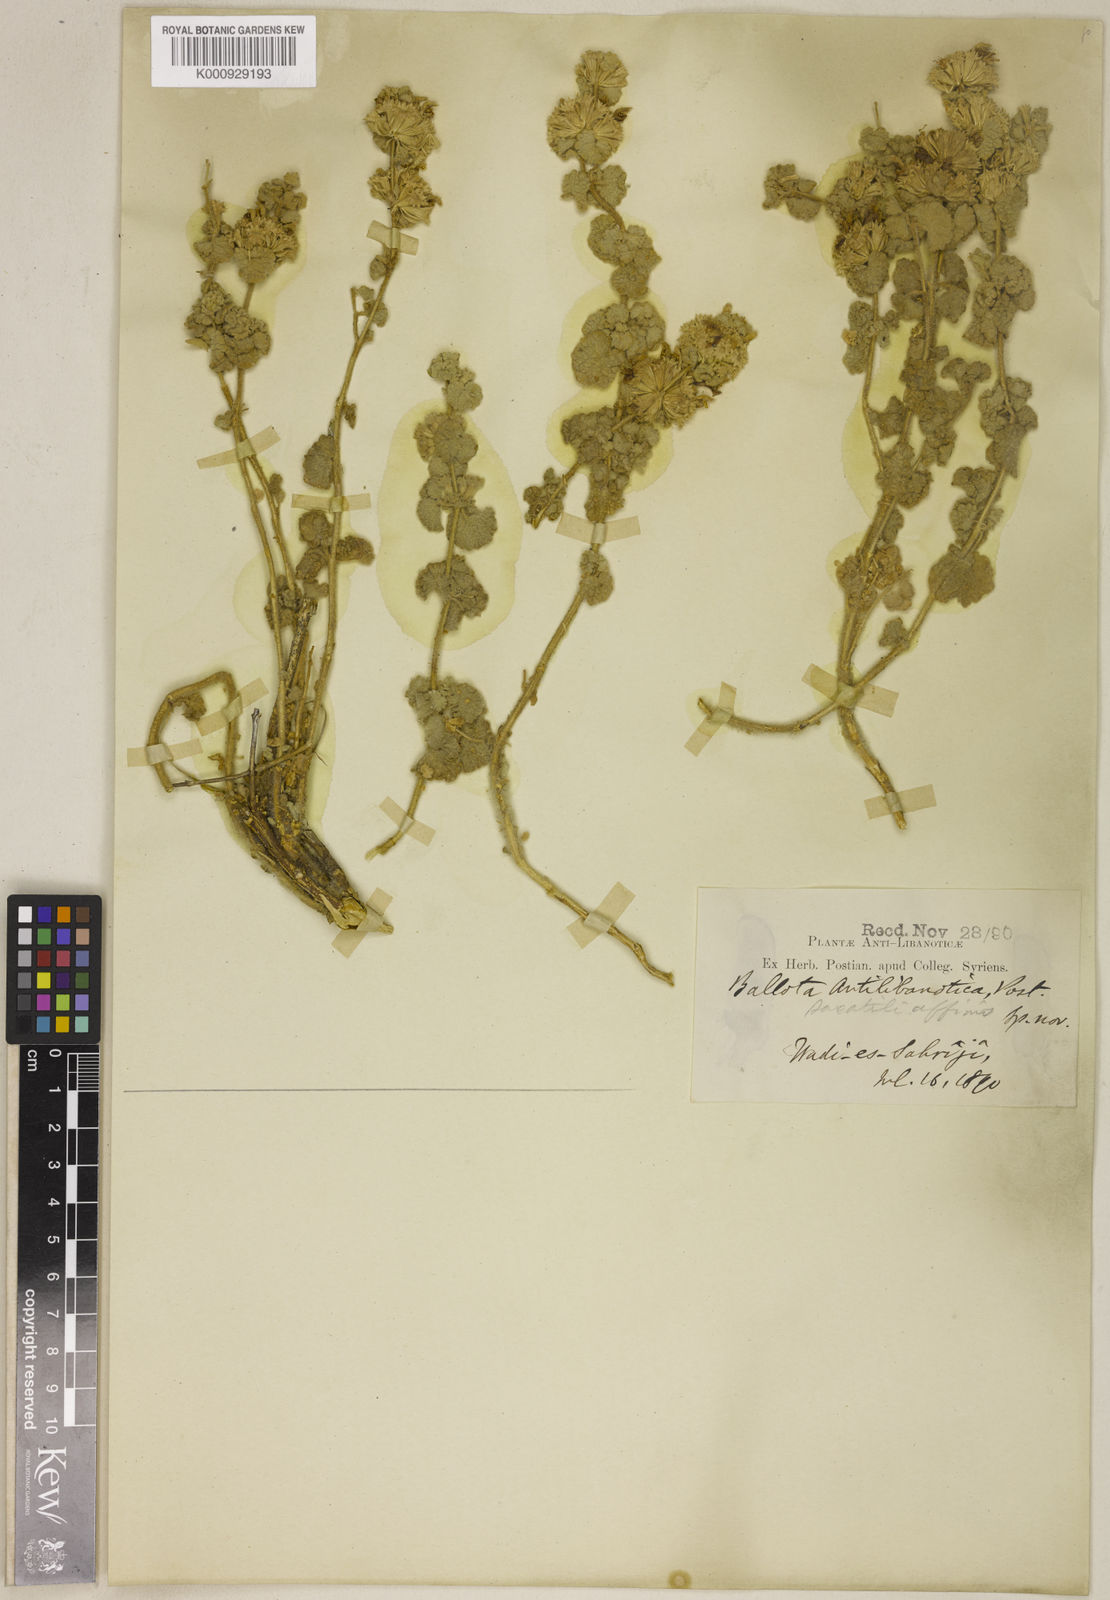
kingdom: Plantae
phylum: Tracheophyta
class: Magnoliopsida
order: Lamiales
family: Lamiaceae
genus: Ballota
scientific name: Ballota antilibanotica
